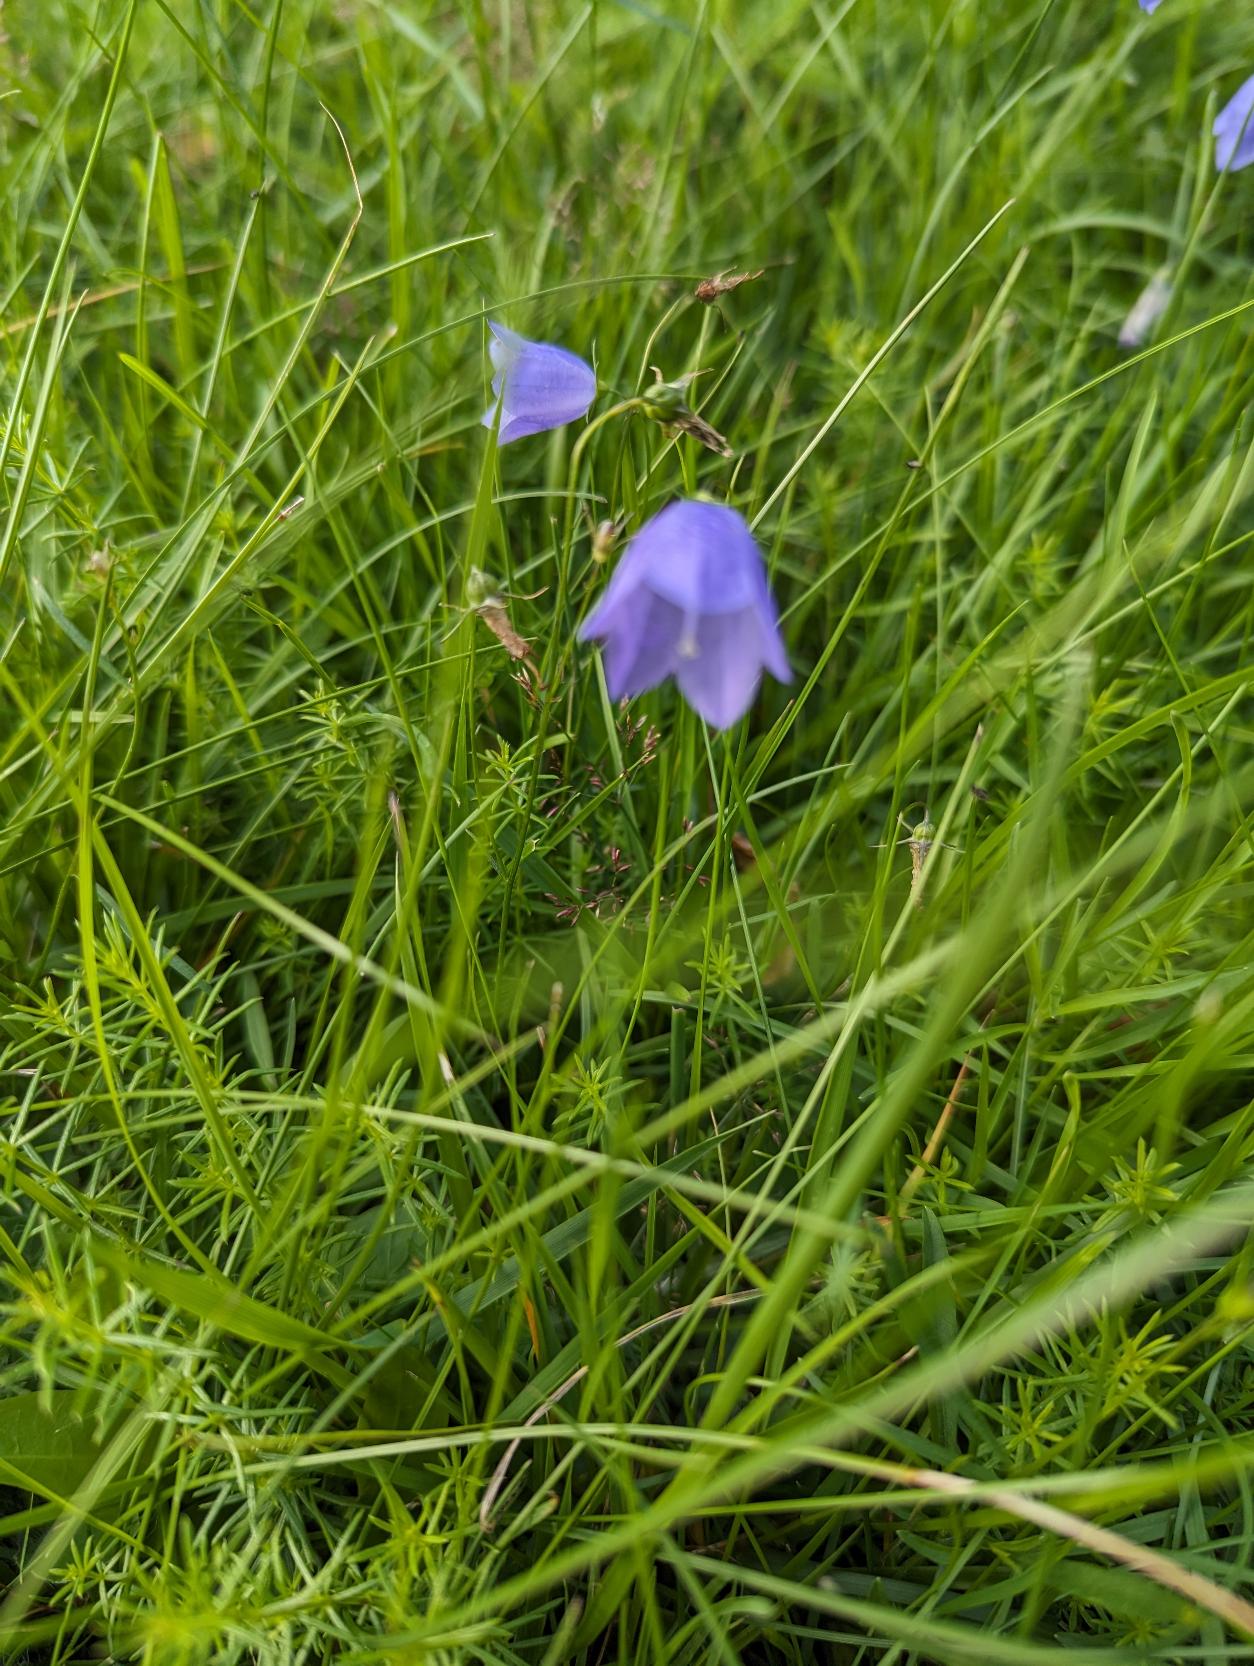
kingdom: Plantae
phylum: Tracheophyta
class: Magnoliopsida
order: Asterales
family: Campanulaceae
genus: Campanula
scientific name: Campanula rotundifolia
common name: Liden klokke
